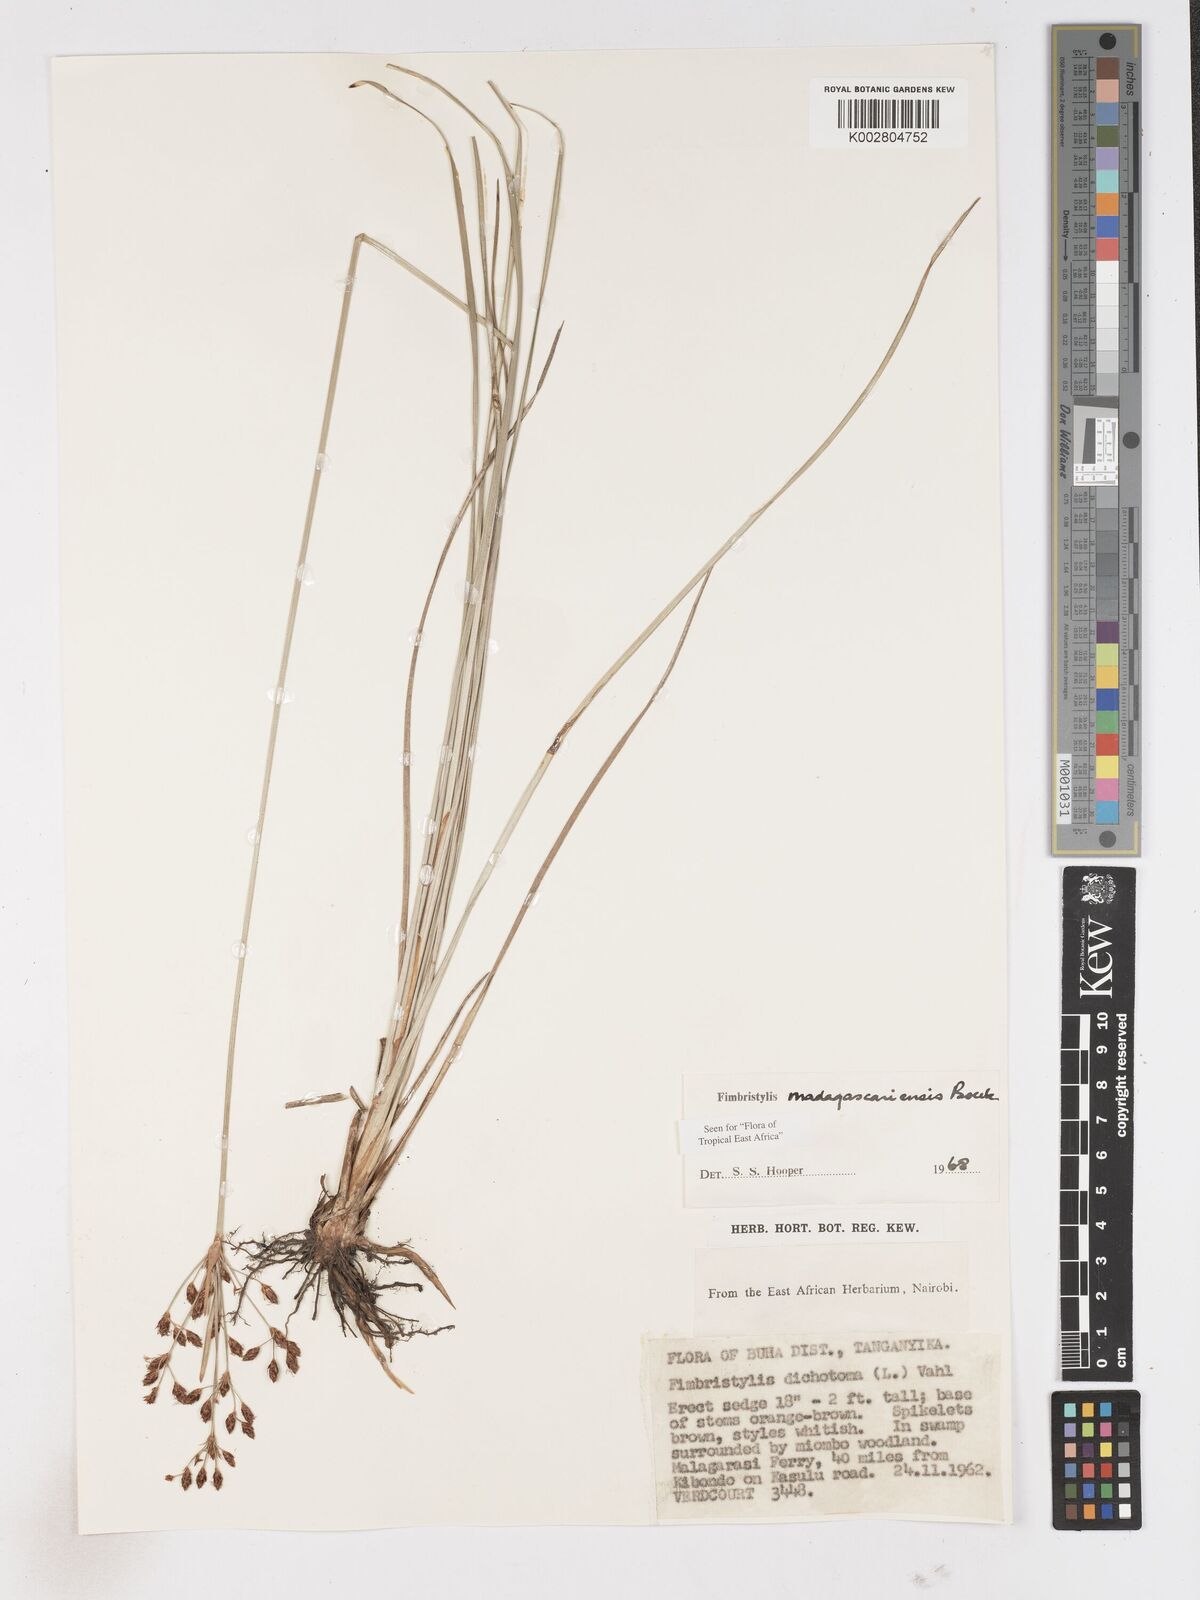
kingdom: Plantae
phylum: Tracheophyta
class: Liliopsida
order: Poales
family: Cyperaceae
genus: Fimbristylis
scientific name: Fimbristylis madagascariensis
